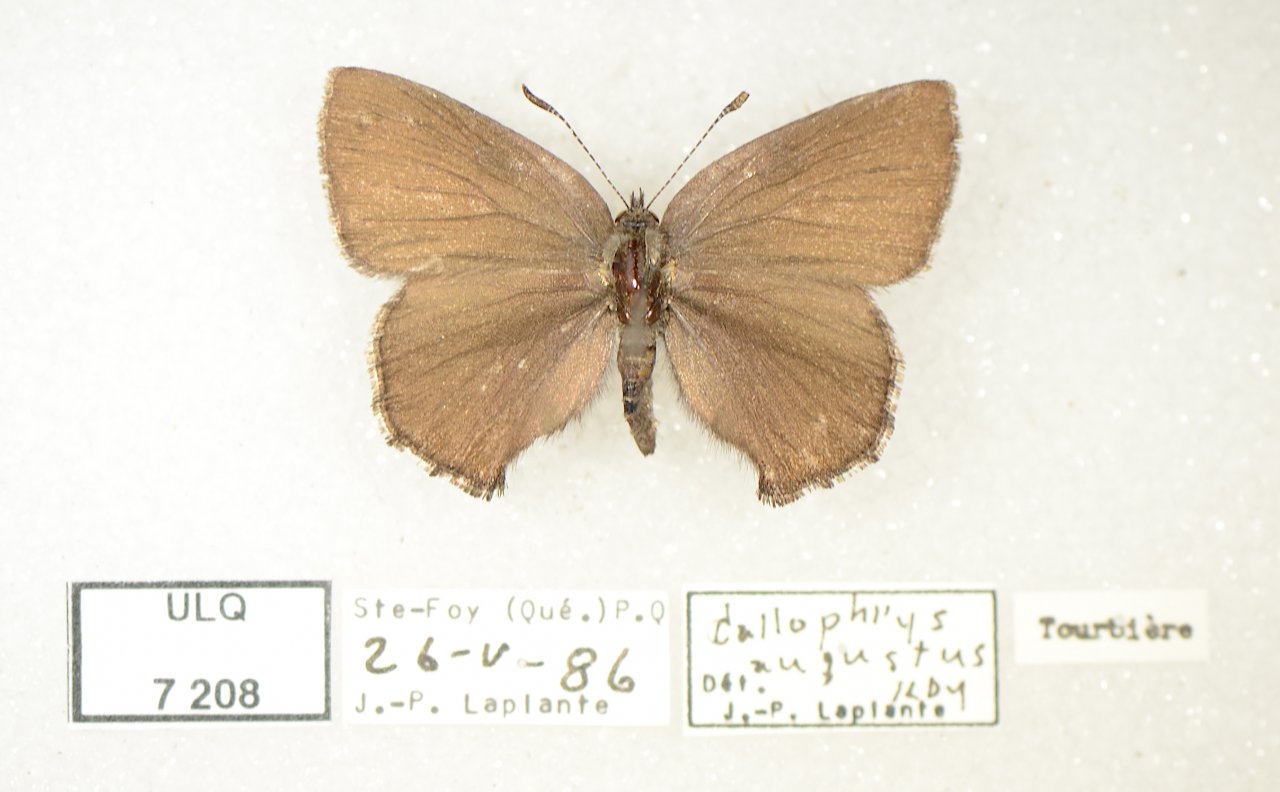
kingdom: Animalia
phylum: Arthropoda
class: Insecta
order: Lepidoptera
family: Lycaenidae
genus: Incisalia
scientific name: Incisalia irioides
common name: Brown Elfin
